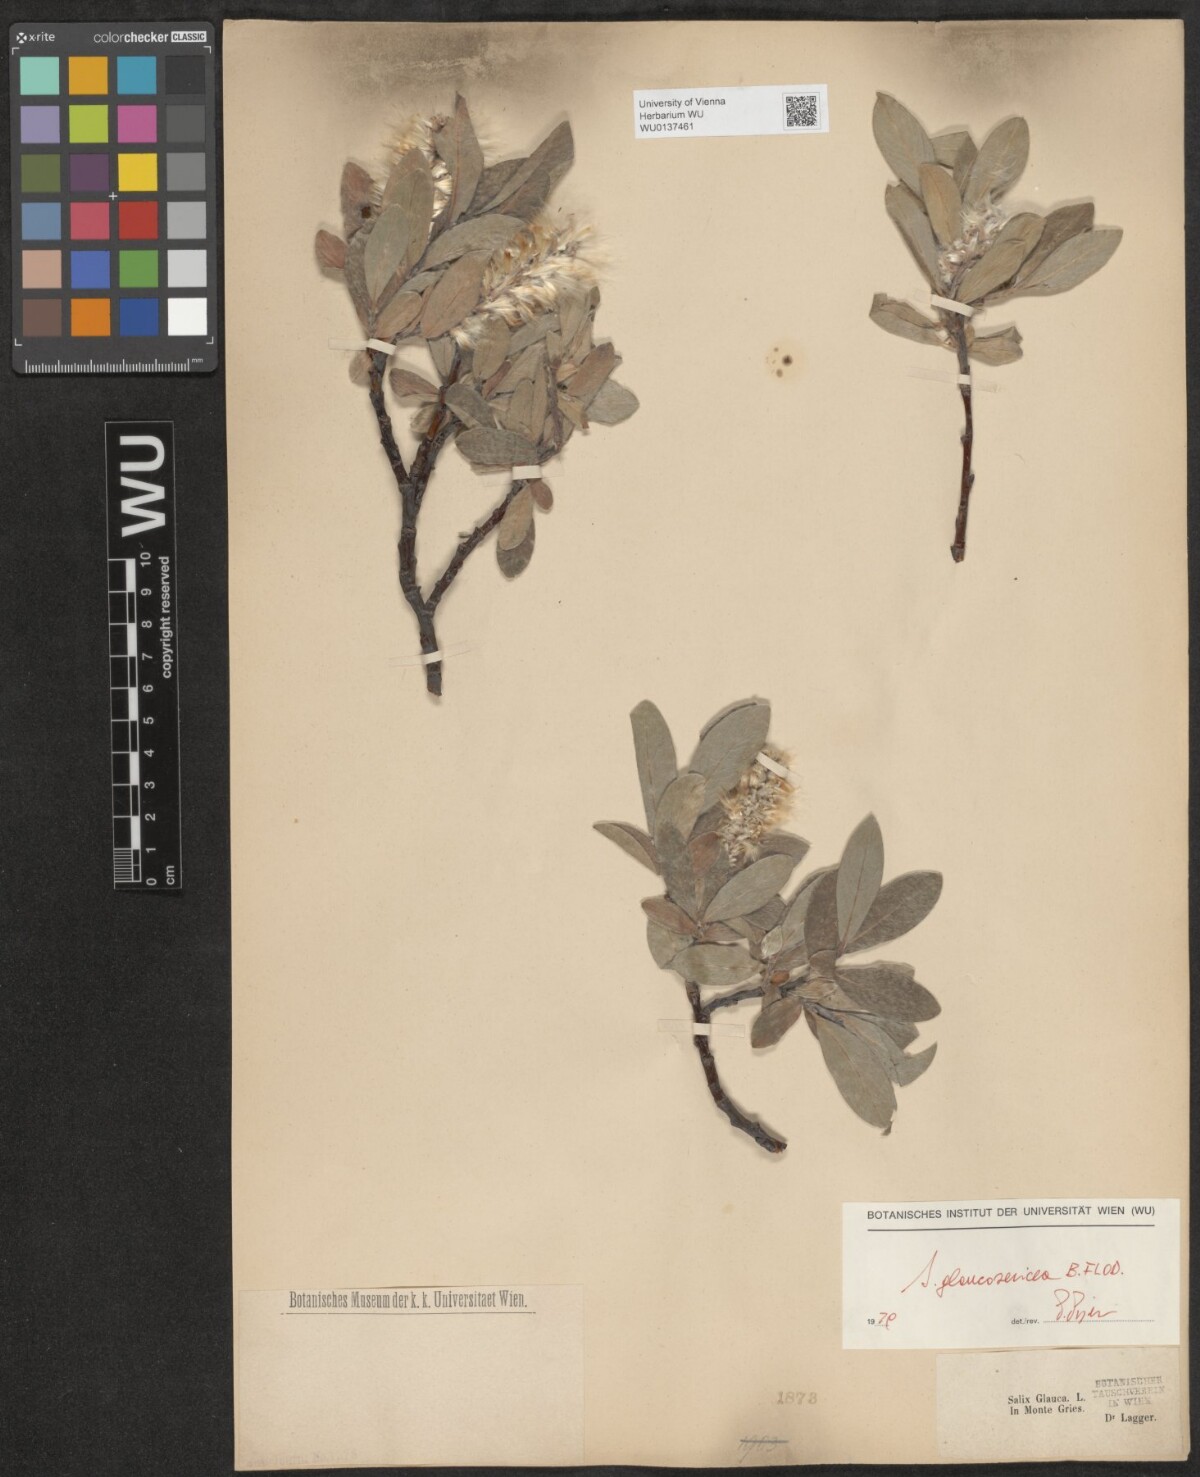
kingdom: Plantae
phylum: Tracheophyta
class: Magnoliopsida
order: Malpighiales
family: Salicaceae
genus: Salix
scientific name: Salix glaucosericea
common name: Alpine gray willow
